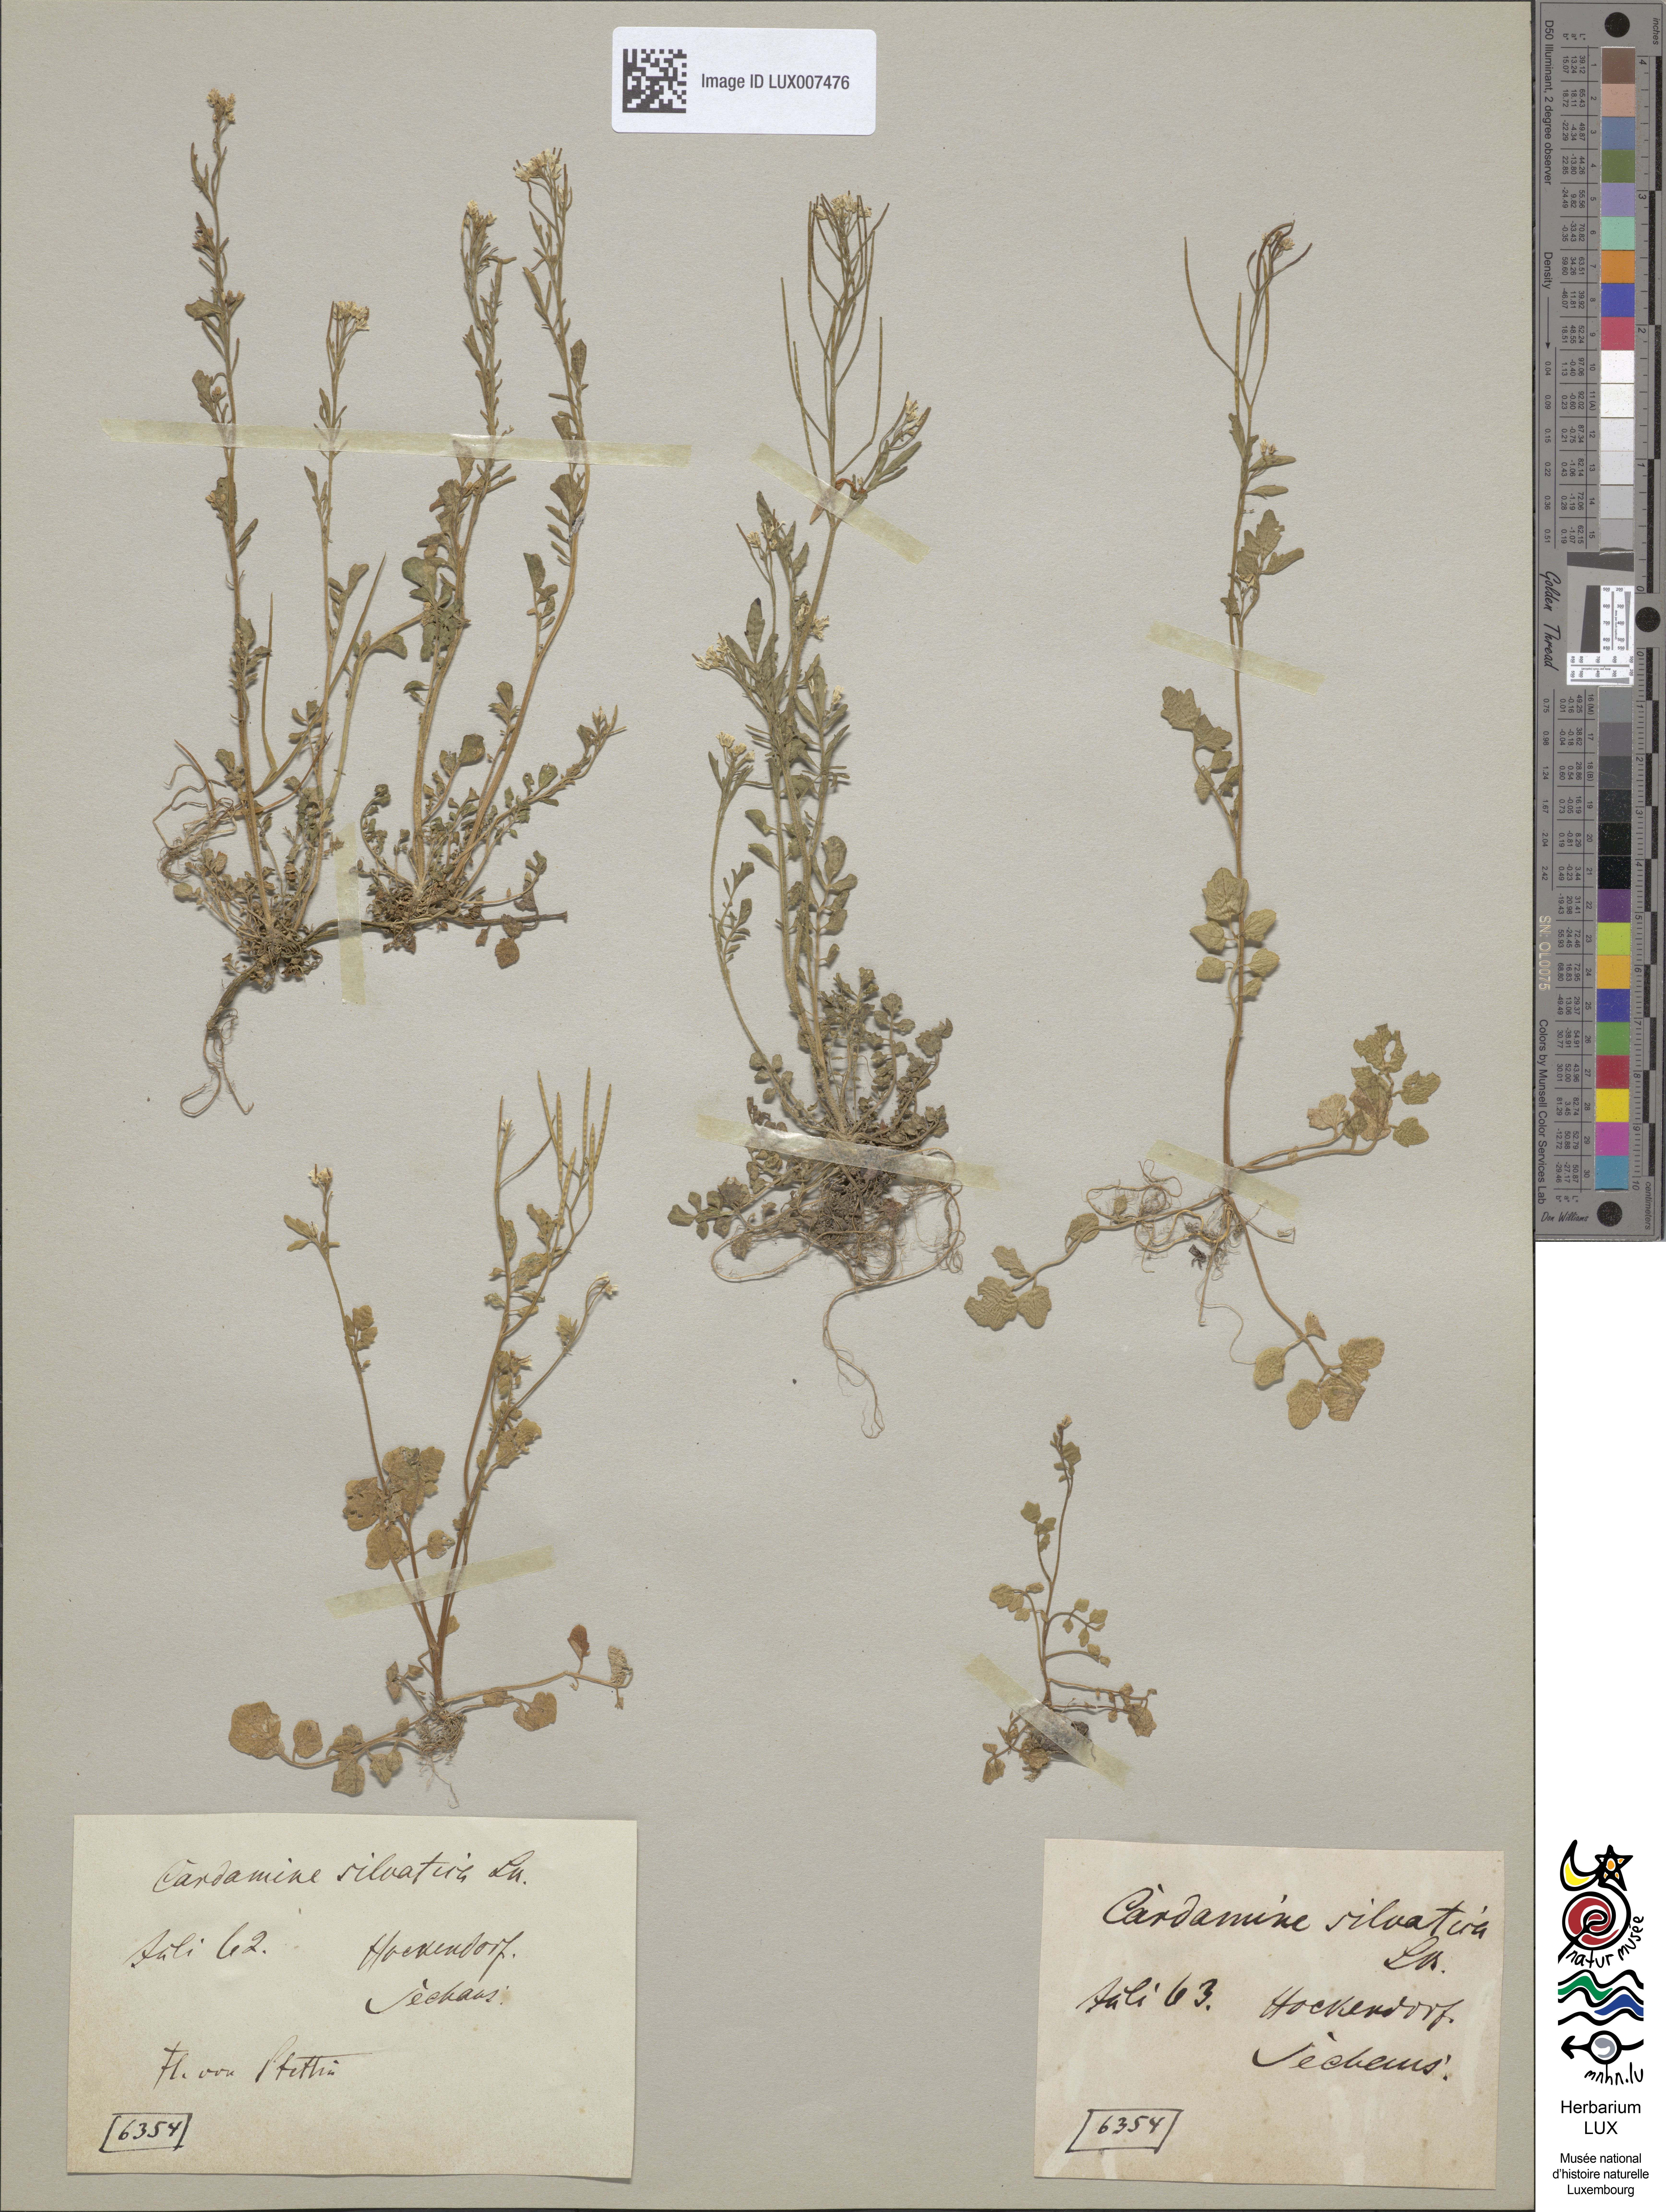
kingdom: Plantae
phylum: Tracheophyta
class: Magnoliopsida
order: Brassicales
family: Brassicaceae
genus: Cardamine
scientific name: Cardamine flexuosa
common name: Woodland bittercress
